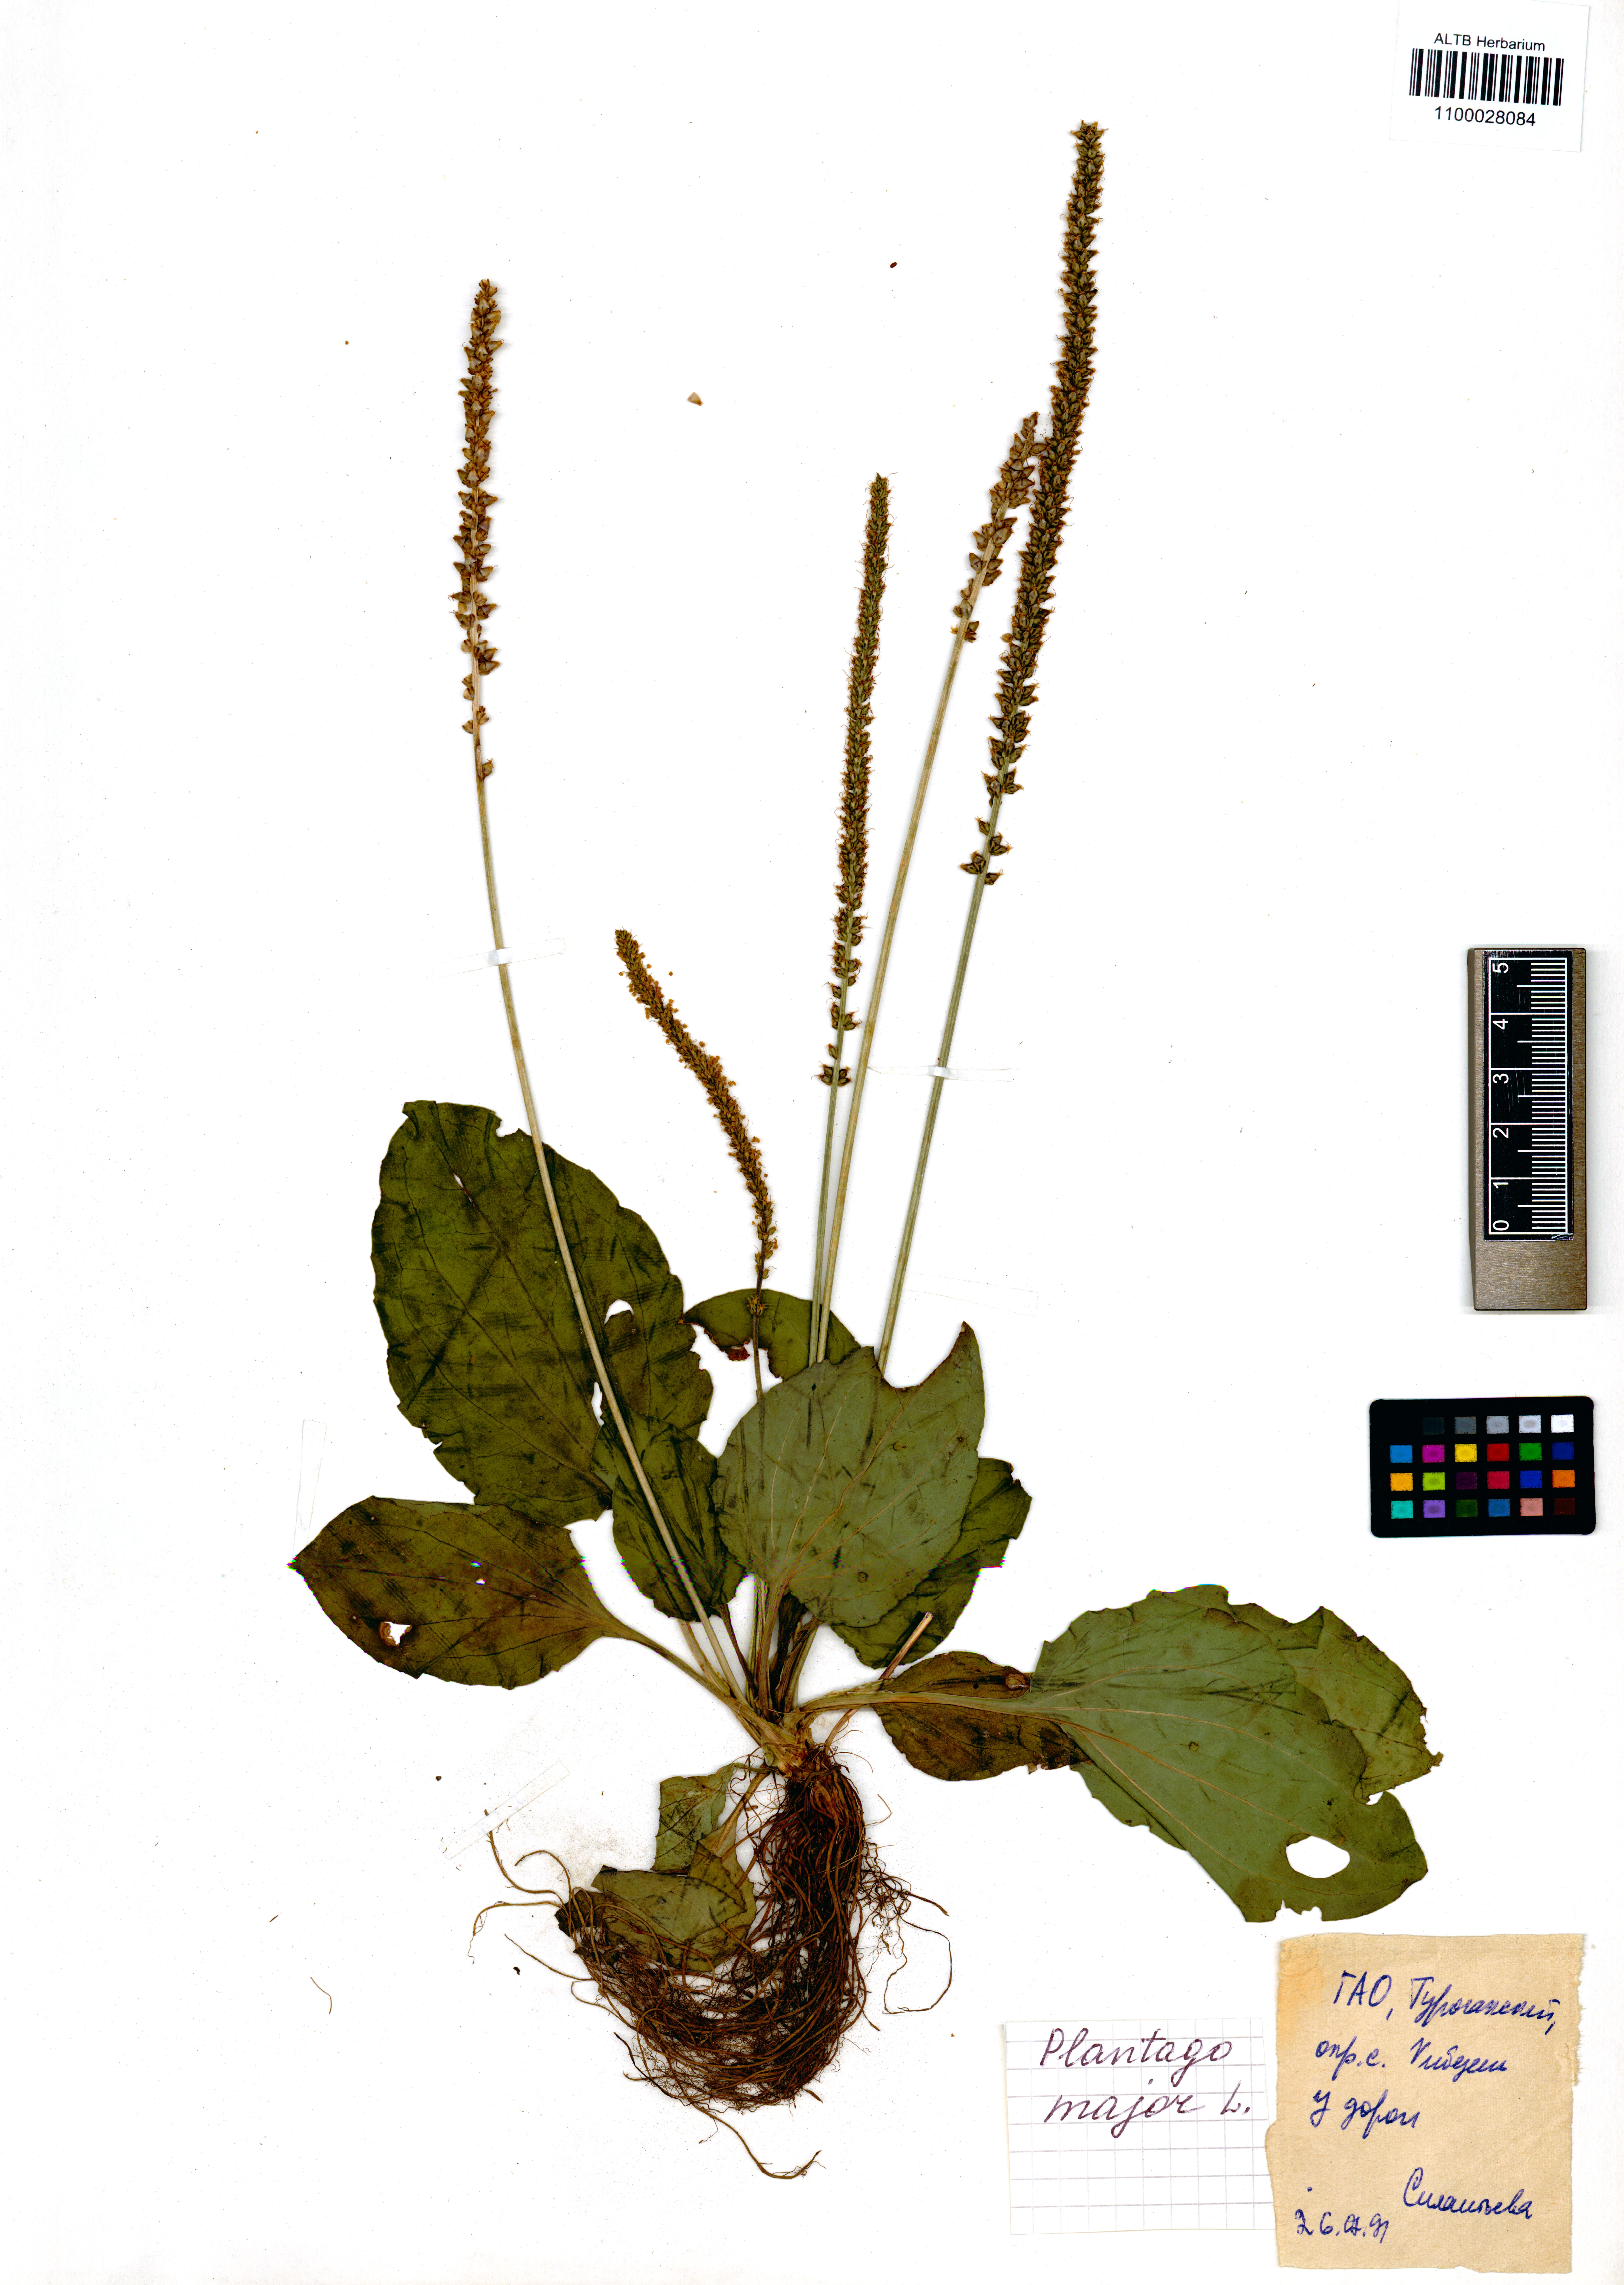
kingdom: Plantae
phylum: Tracheophyta
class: Magnoliopsida
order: Lamiales
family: Plantaginaceae
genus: Plantago
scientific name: Plantago major
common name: Common plantain
